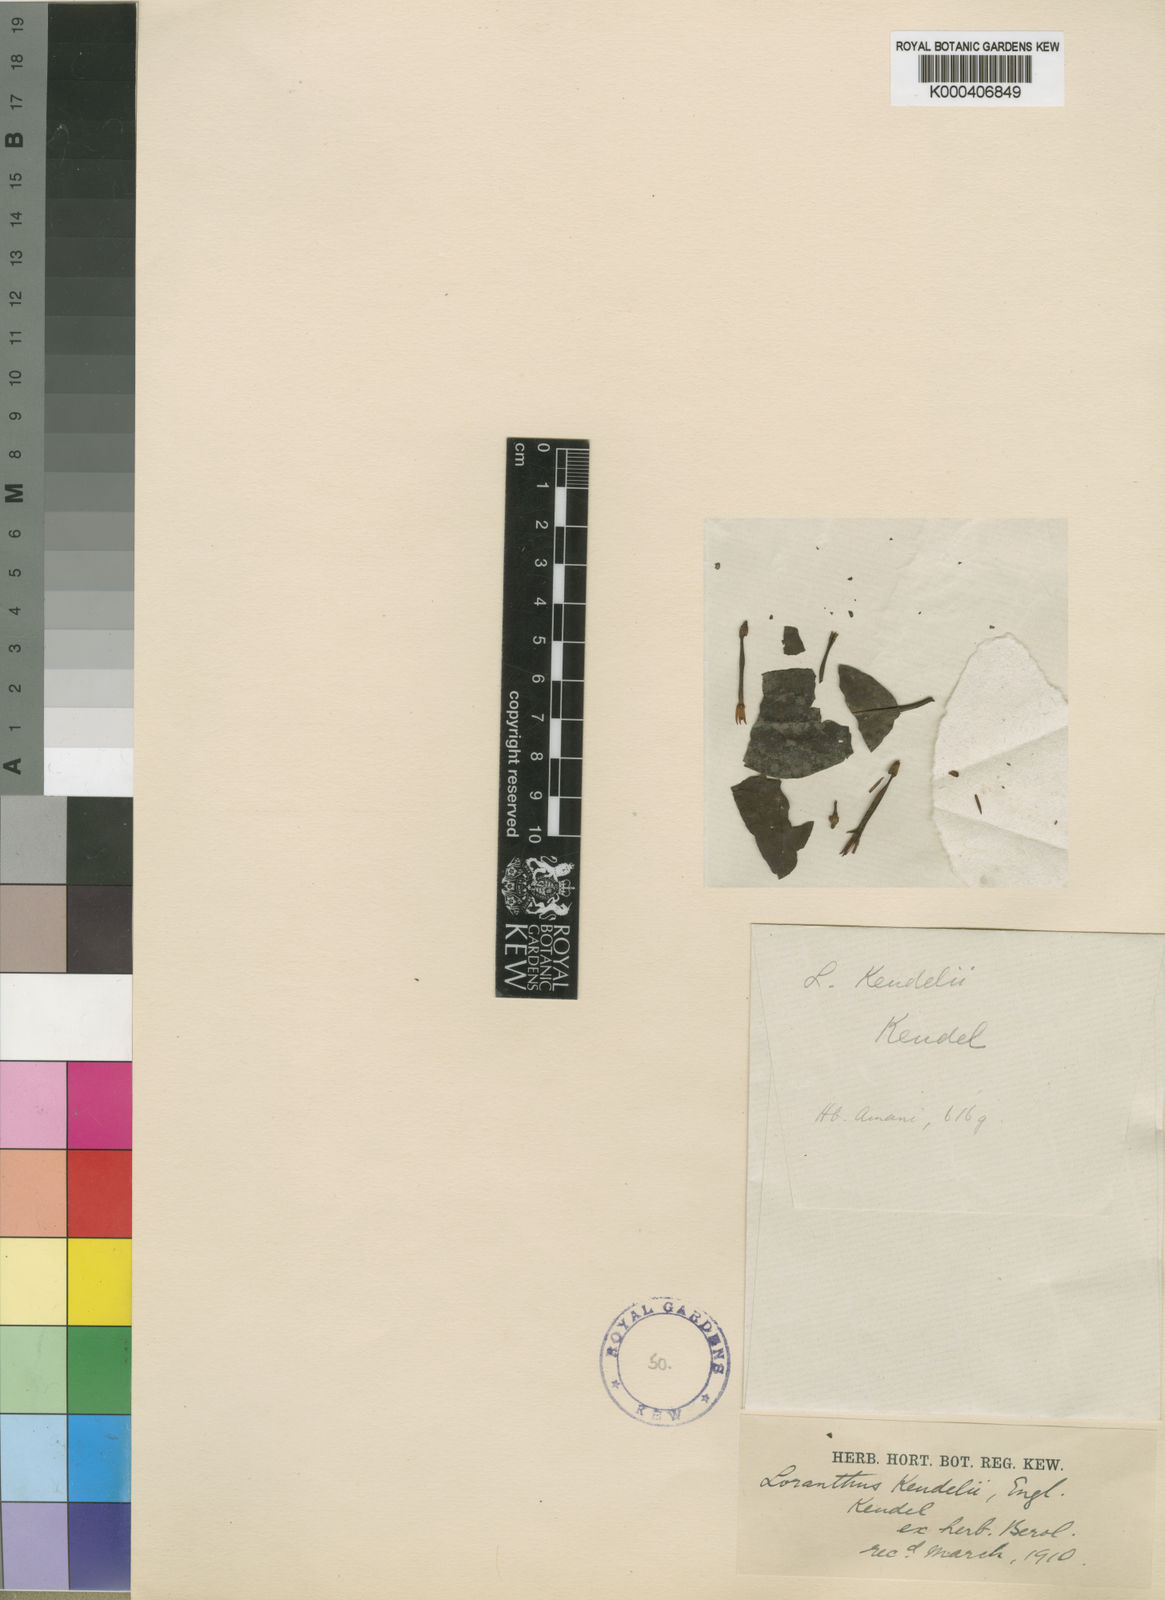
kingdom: Plantae
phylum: Tracheophyta
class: Magnoliopsida
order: Santalales
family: Loranthaceae
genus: Loranthella
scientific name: Loranthella kilimandscharica
